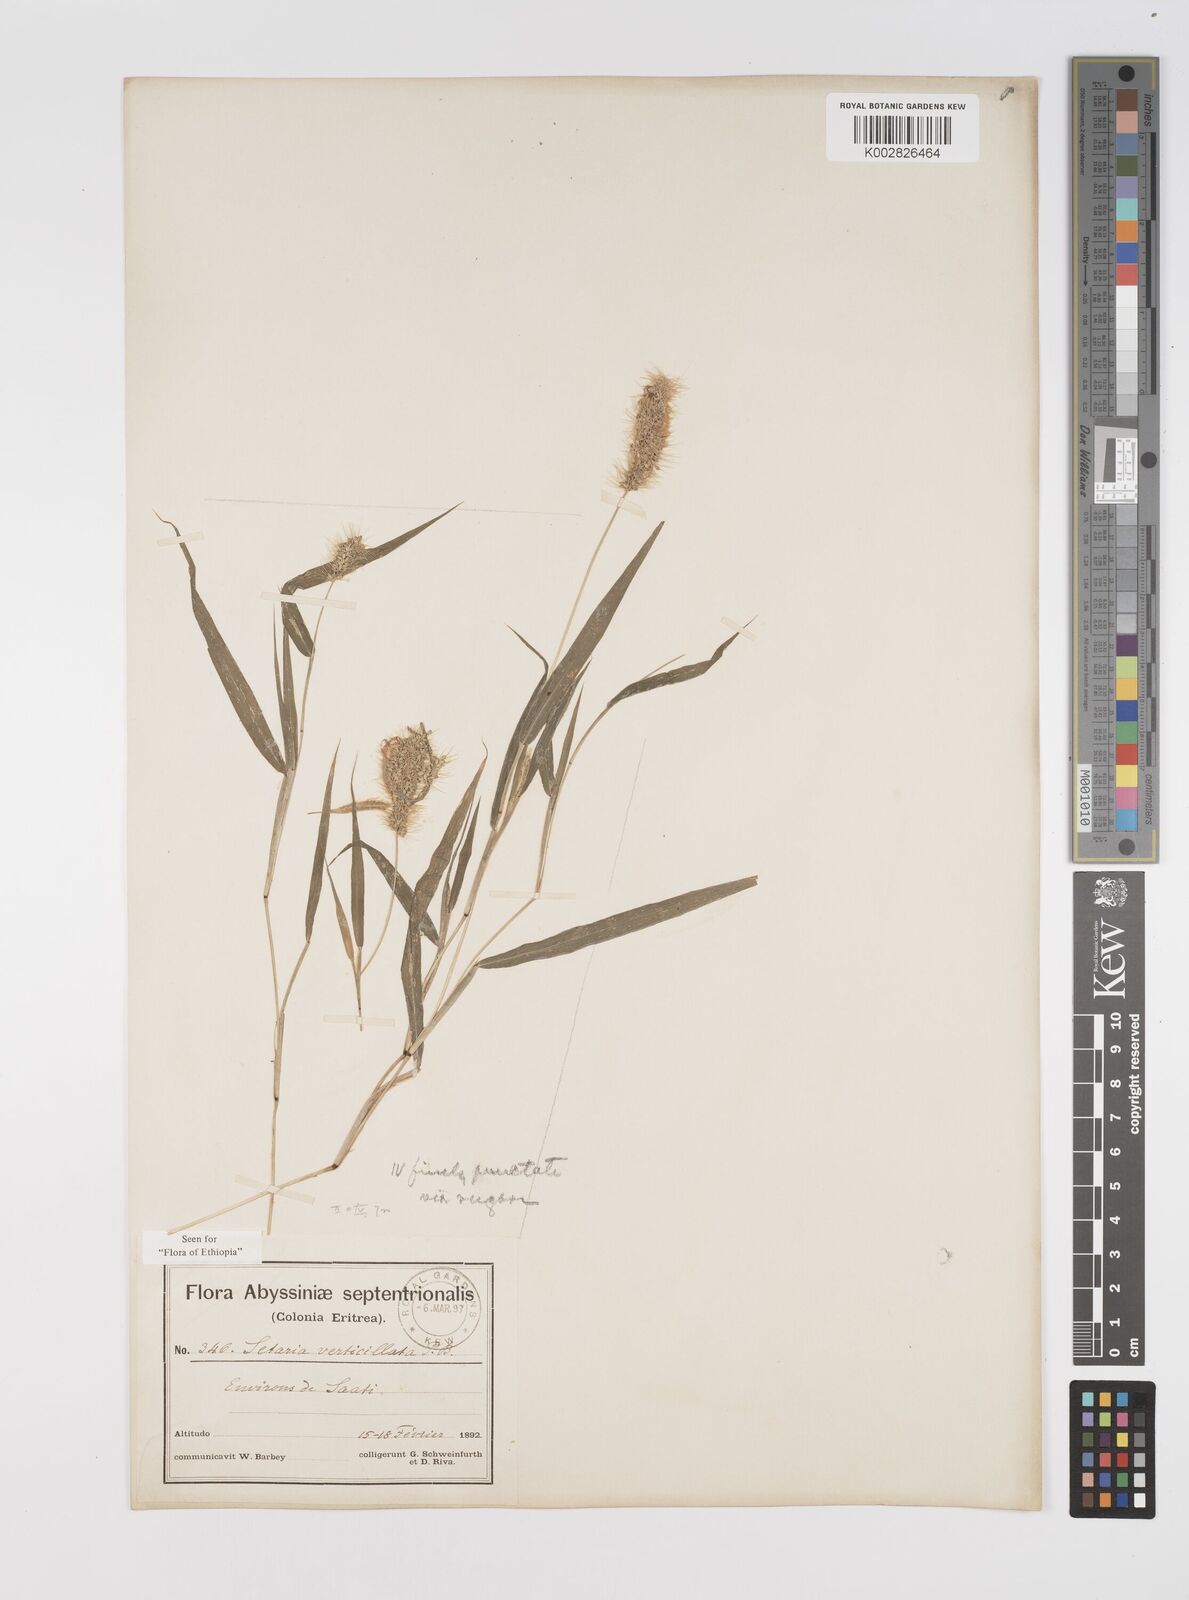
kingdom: Plantae
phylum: Tracheophyta
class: Liliopsida
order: Poales
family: Poaceae
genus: Setaria
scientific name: Setaria verticillata
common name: Hooked bristlegrass
